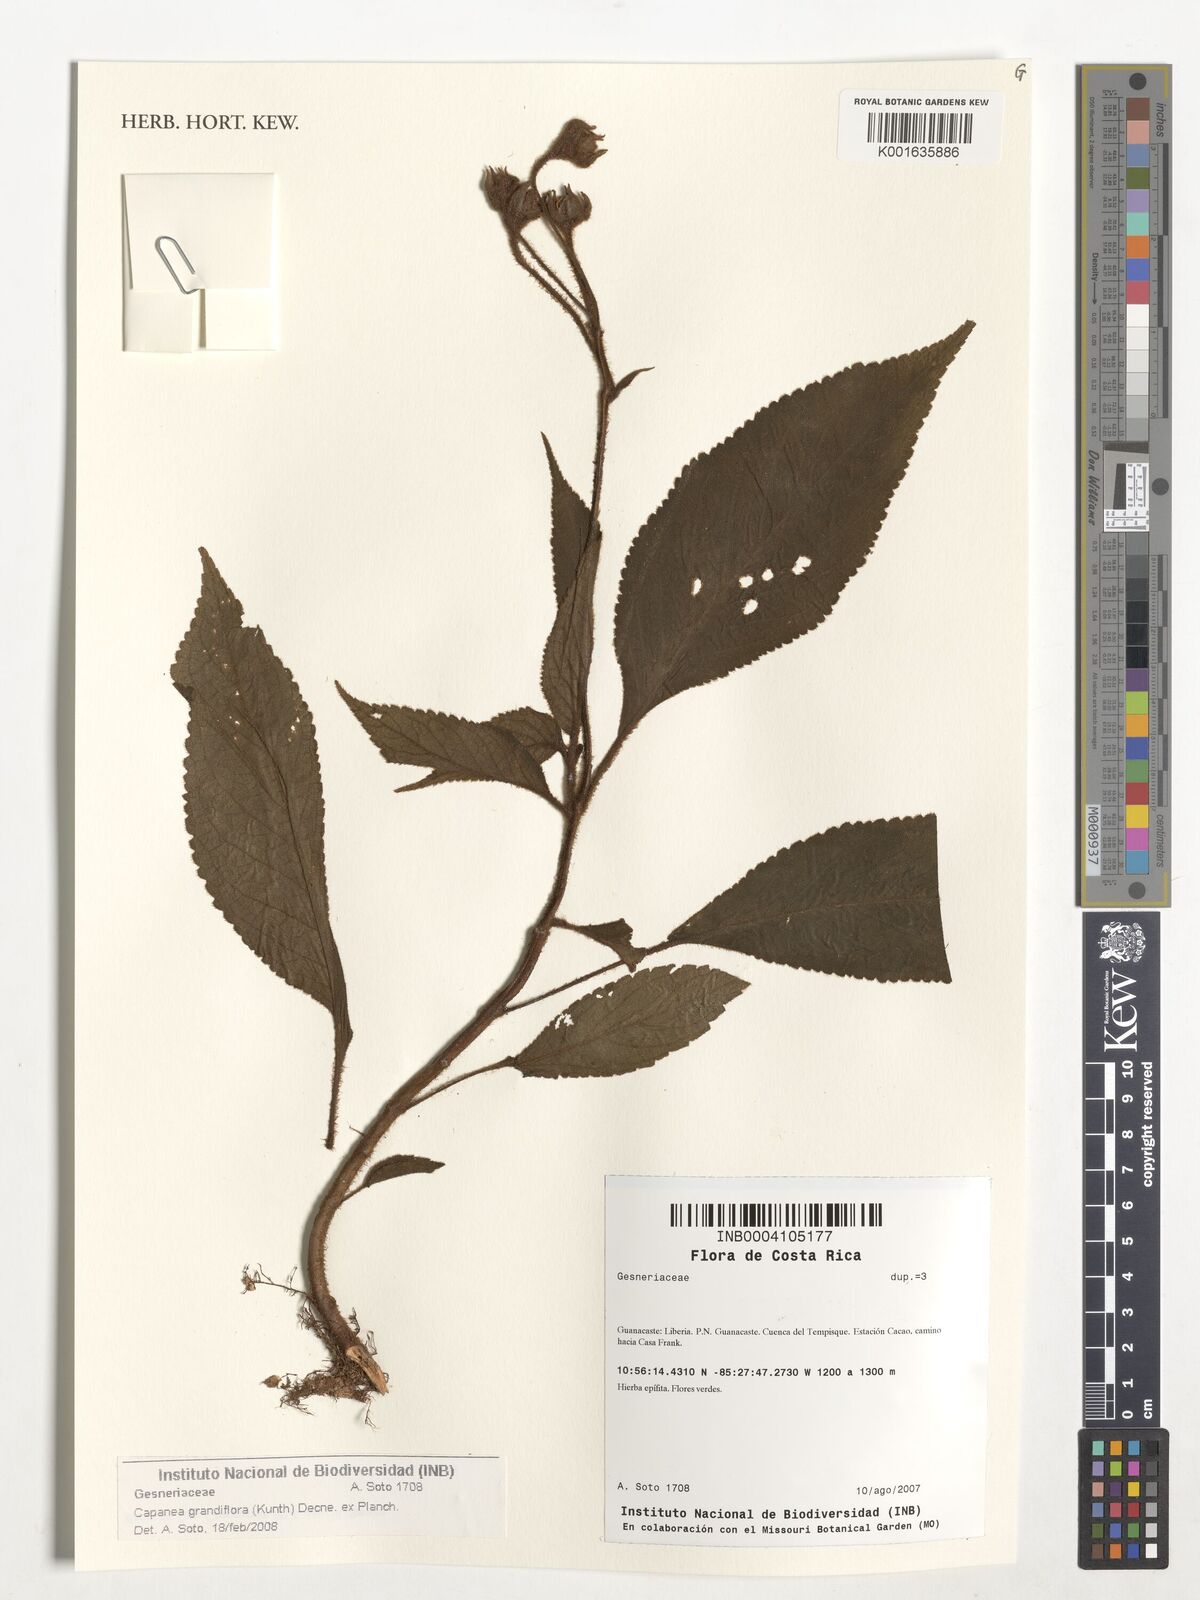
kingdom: Plantae
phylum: Tracheophyta
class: Magnoliopsida
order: Lamiales
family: Gesneriaceae
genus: Kohleria
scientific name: Kohleria tigridia
